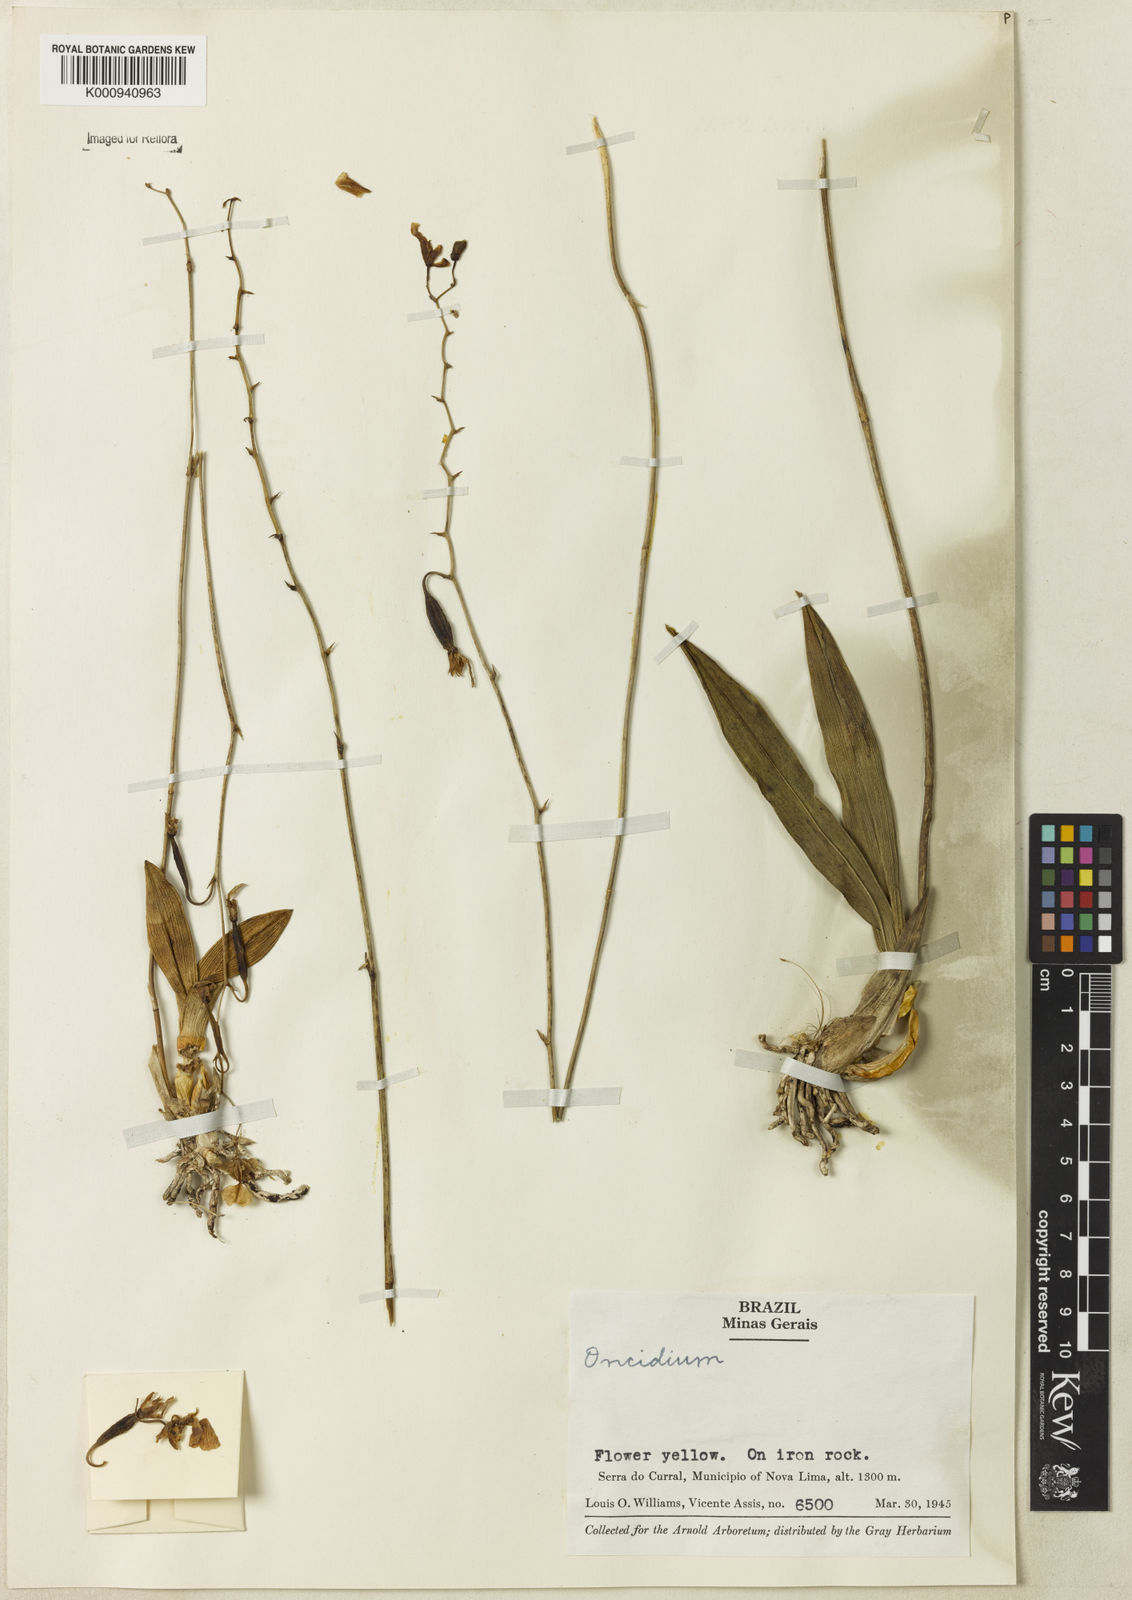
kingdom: Plantae
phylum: Tracheophyta
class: Liliopsida
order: Asparagales
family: Orchidaceae
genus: Oncidium
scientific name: Oncidium
